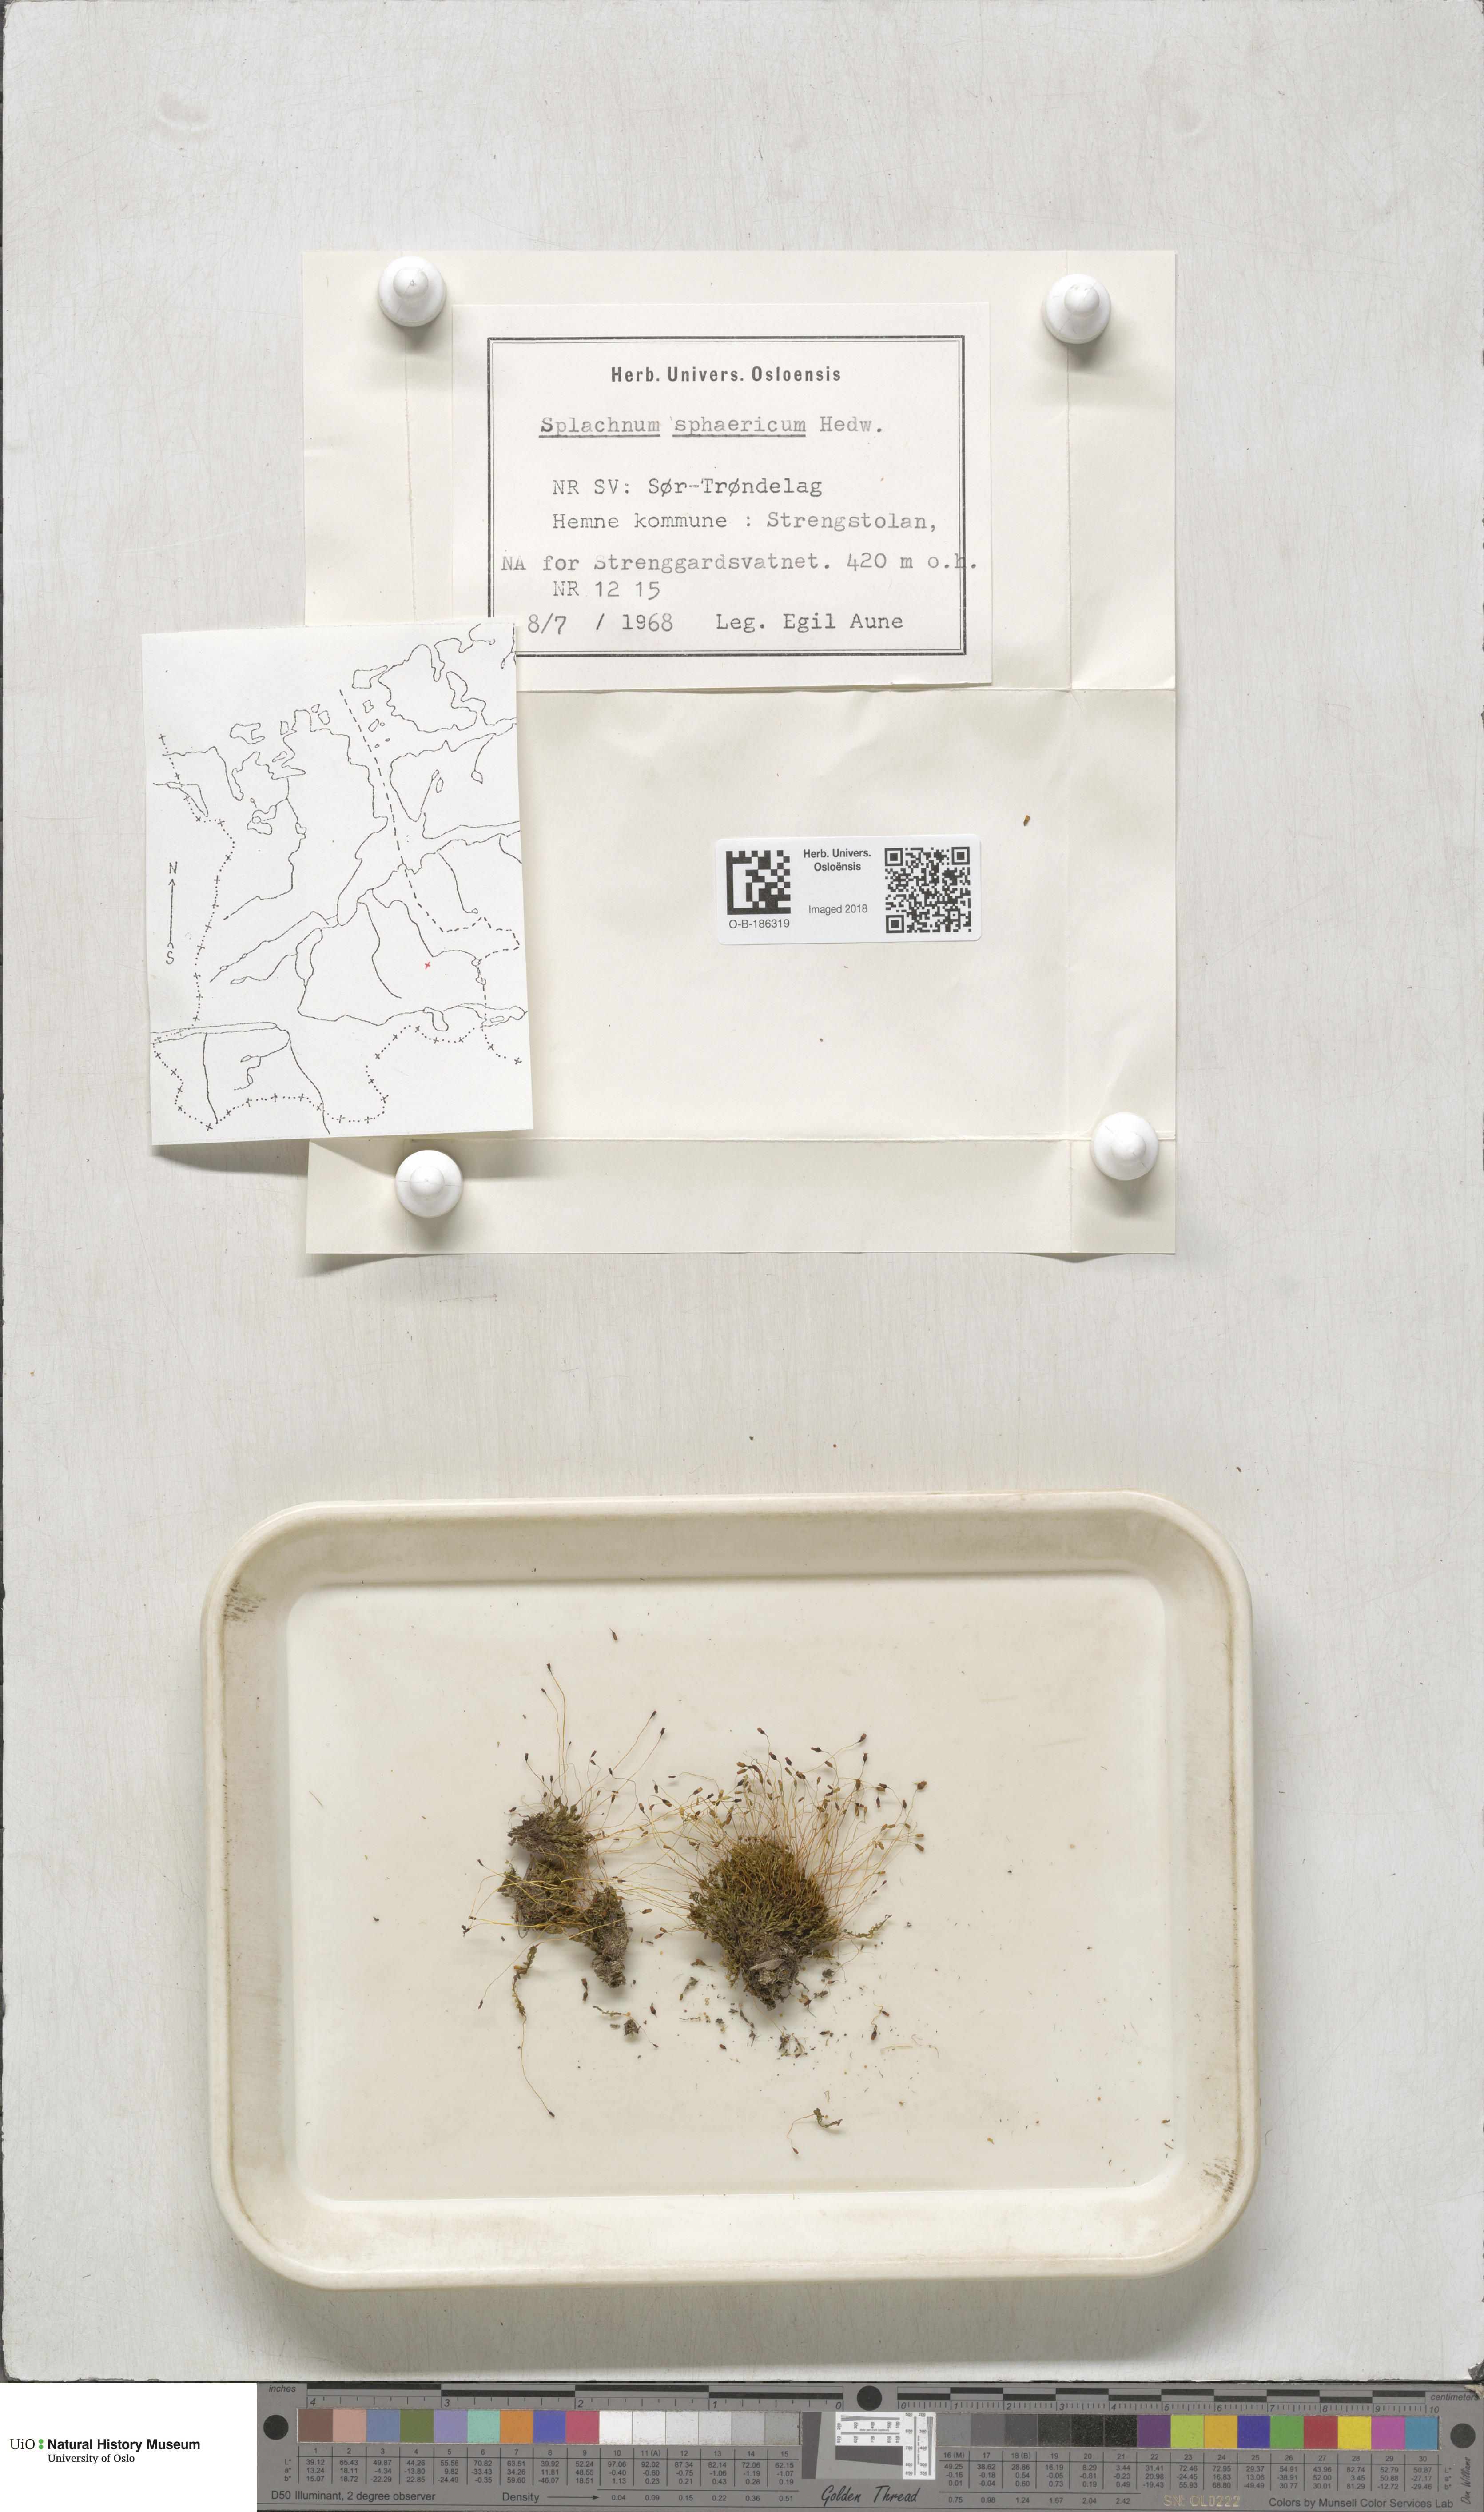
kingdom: Plantae
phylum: Bryophyta
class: Bryopsida
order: Splachnales
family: Splachnaceae
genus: Splachnum
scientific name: Splachnum sphaericum
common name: Round-fruited dung moss
